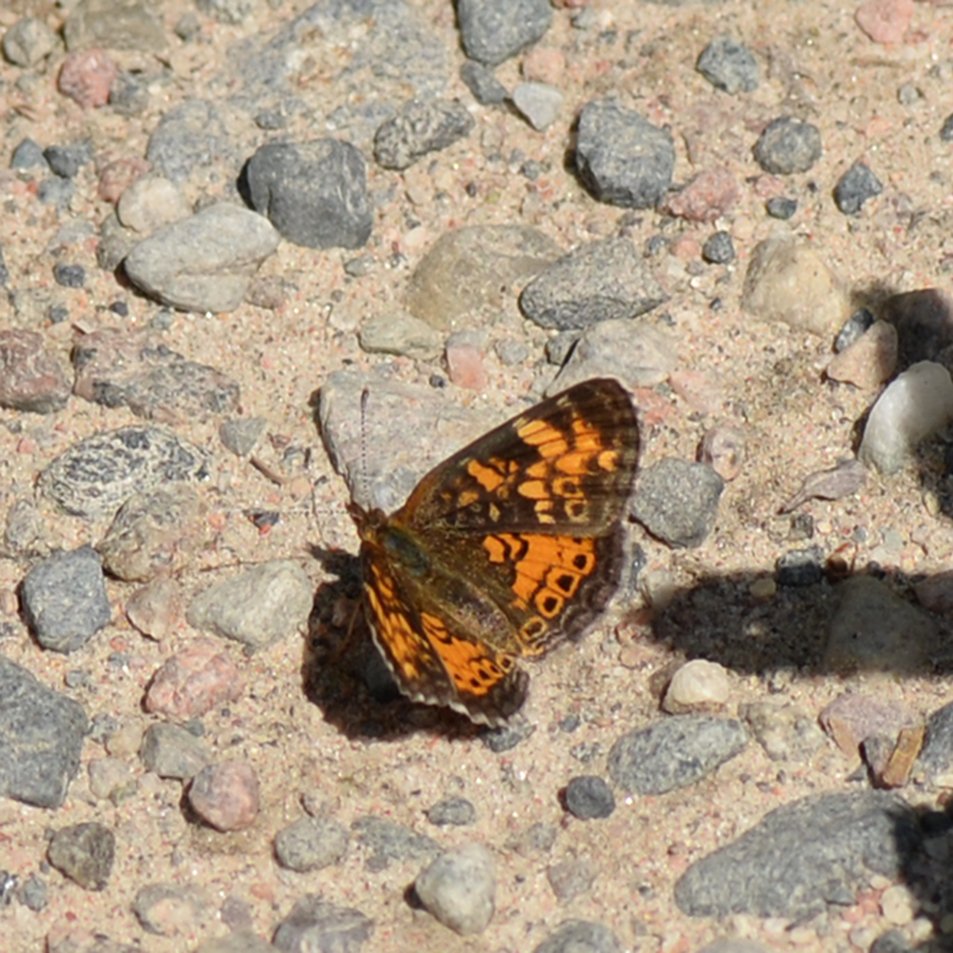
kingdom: Animalia
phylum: Arthropoda
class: Insecta
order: Lepidoptera
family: Nymphalidae
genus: Phyciodes
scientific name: Phyciodes tharos
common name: Northern Crescent
